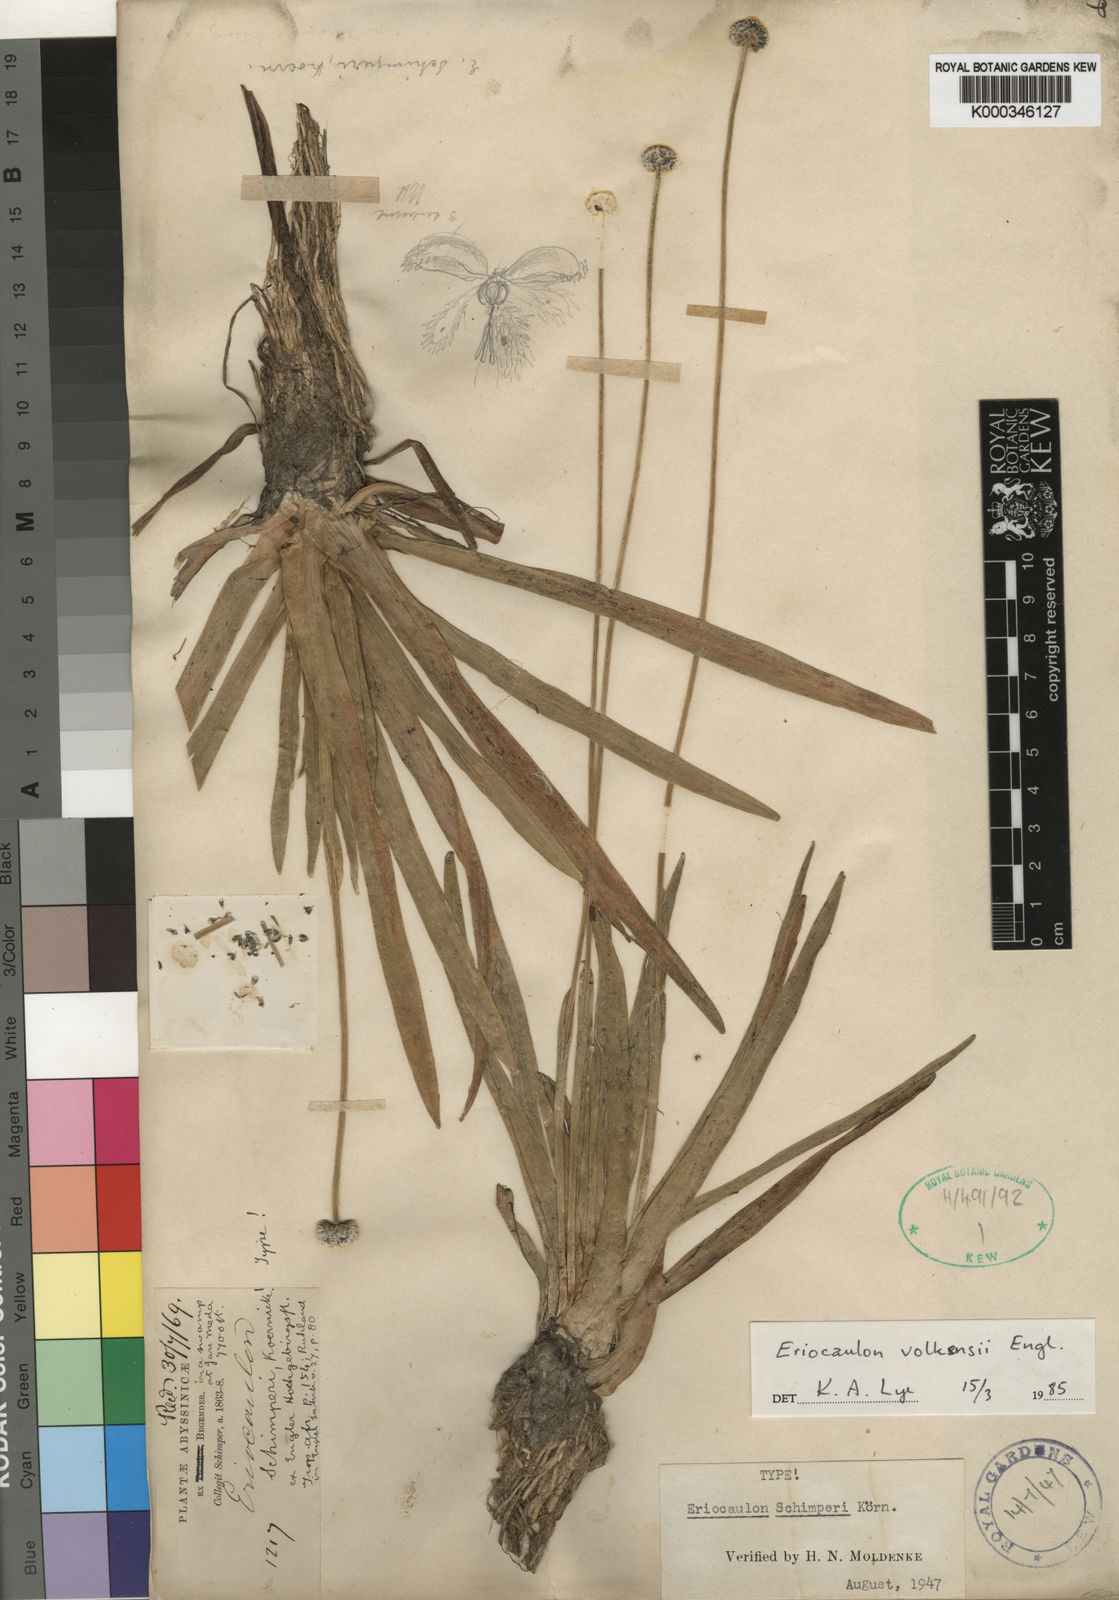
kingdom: Plantae
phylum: Tracheophyta
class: Liliopsida
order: Poales
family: Eriocaulaceae
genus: Eriocaulon
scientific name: Eriocaulon
